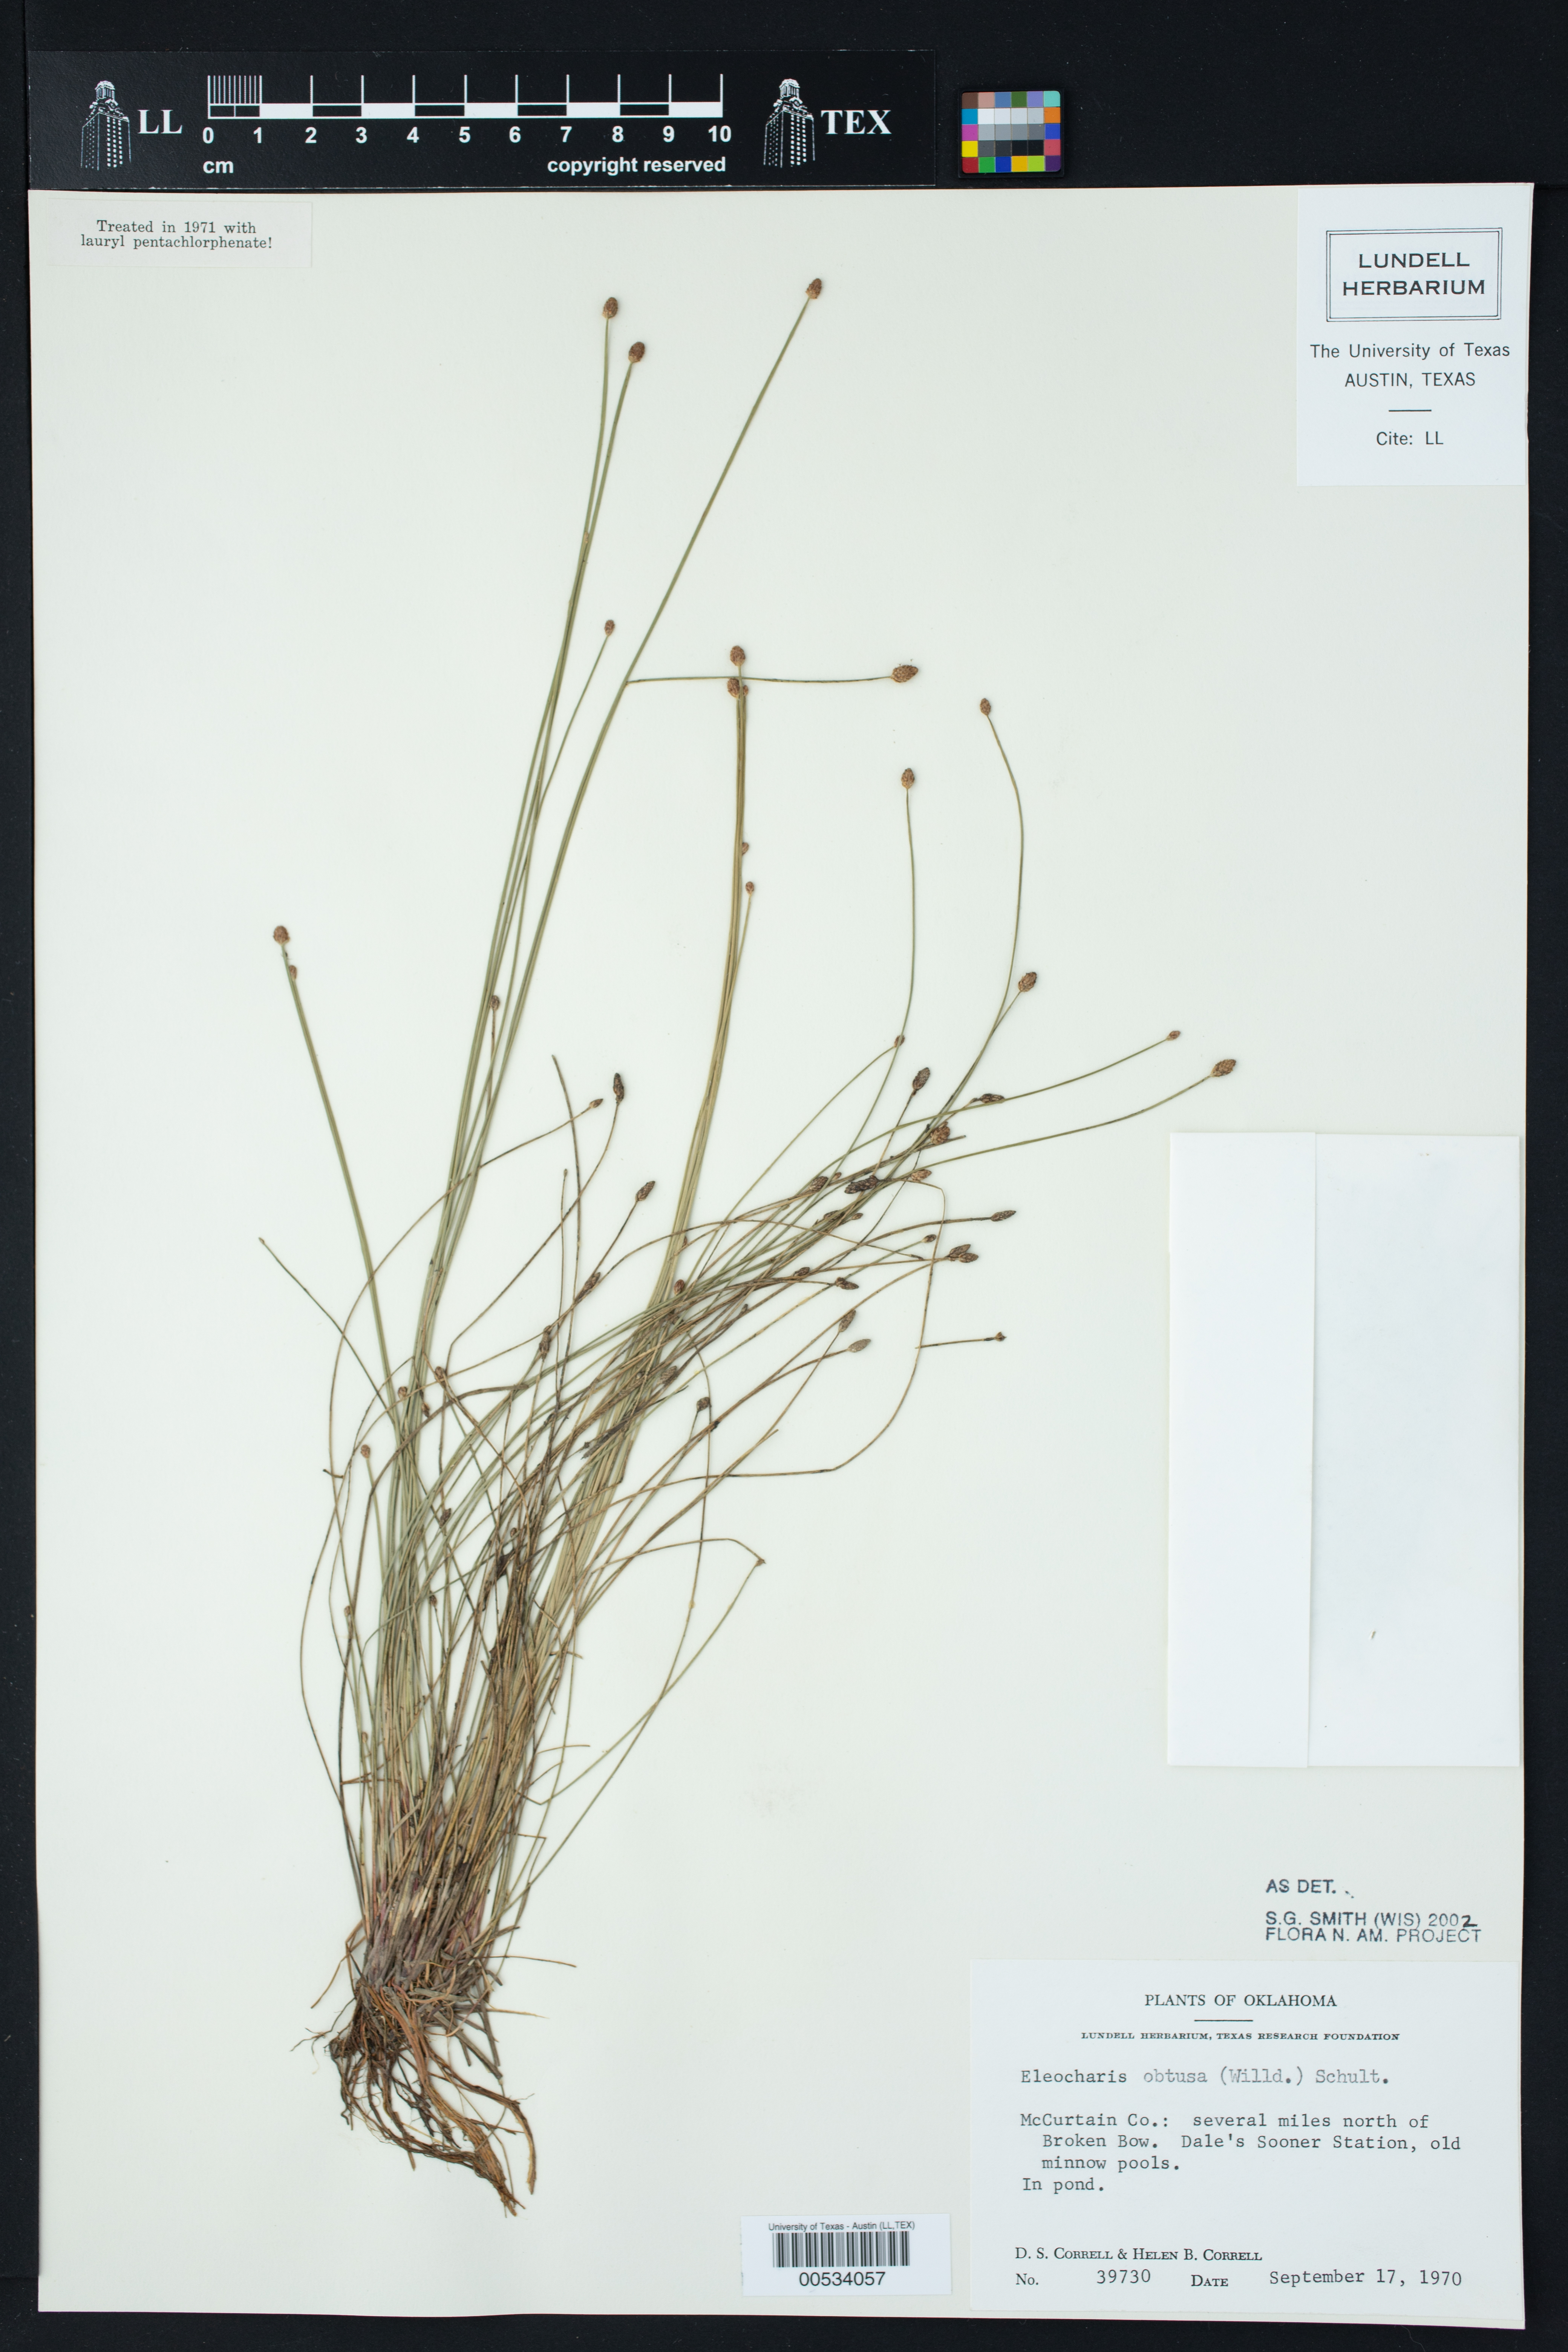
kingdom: Plantae
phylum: Tracheophyta
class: Liliopsida
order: Poales
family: Cyperaceae
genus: Eleocharis
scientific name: Eleocharis obtusa
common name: Blunt spikerush
